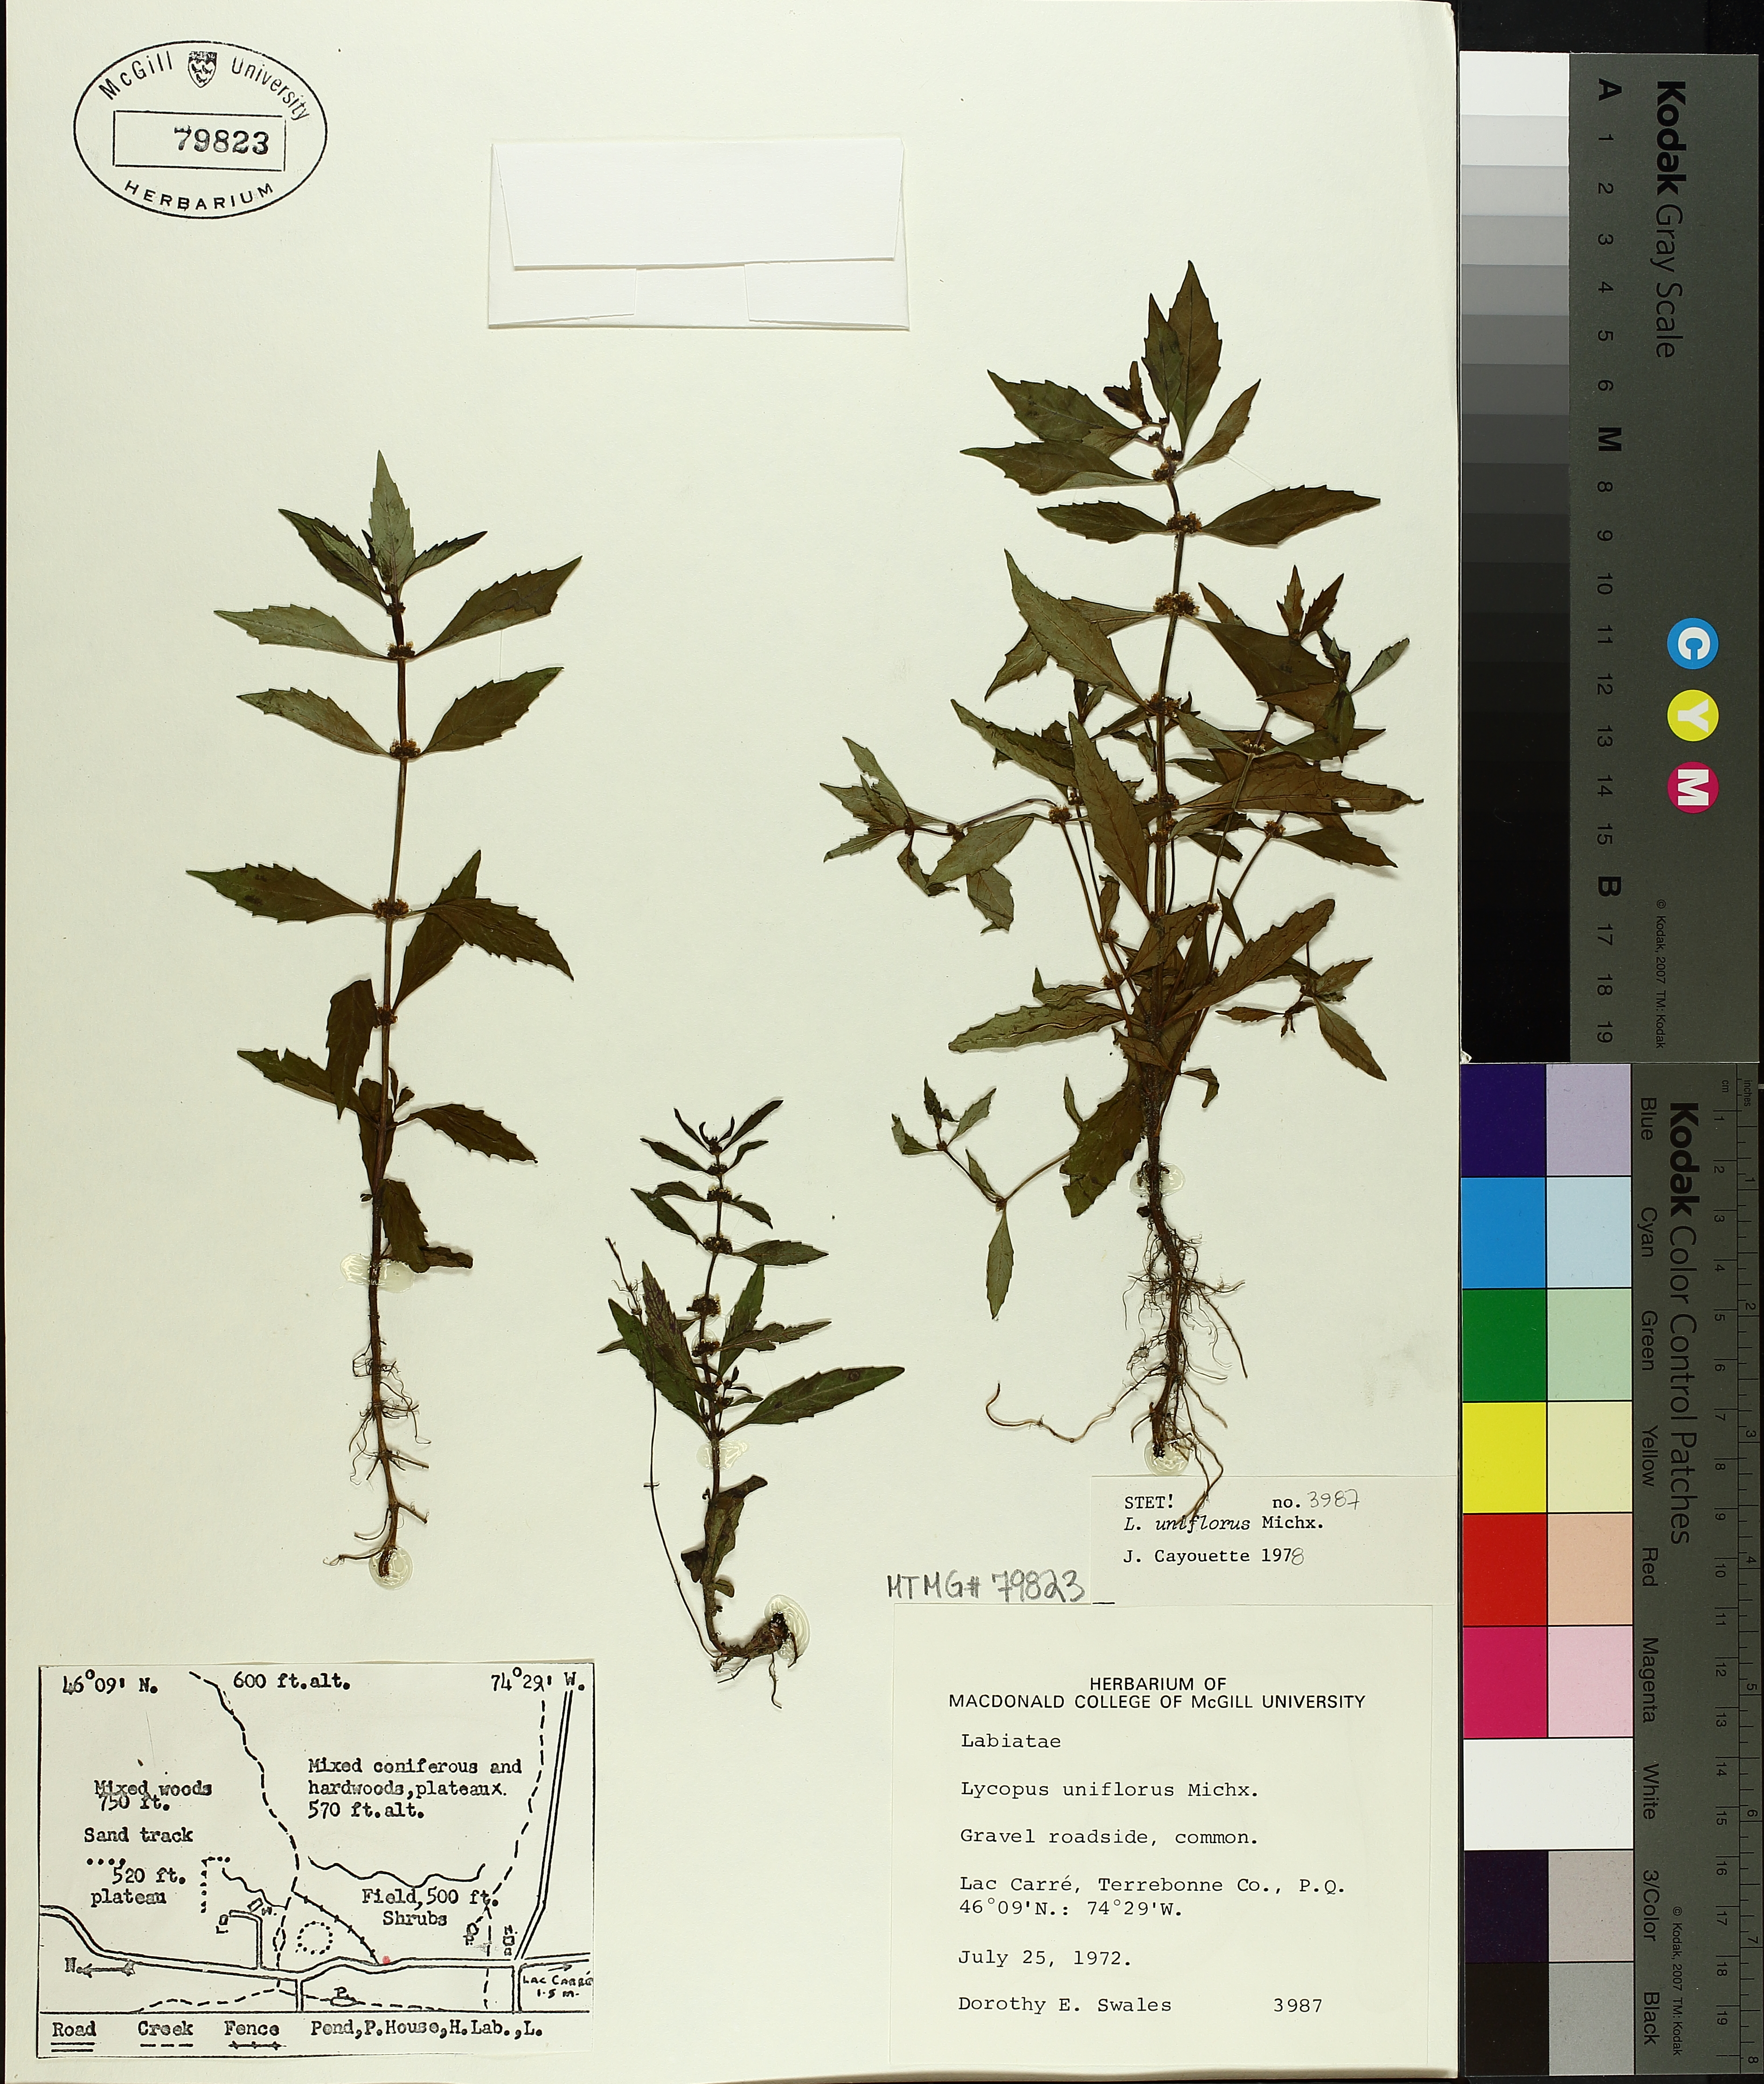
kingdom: Plantae
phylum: Tracheophyta
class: Magnoliopsida
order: Lamiales
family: Lamiaceae
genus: Lycopus
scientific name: Lycopus uniflorus
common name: Northern bugleweed
